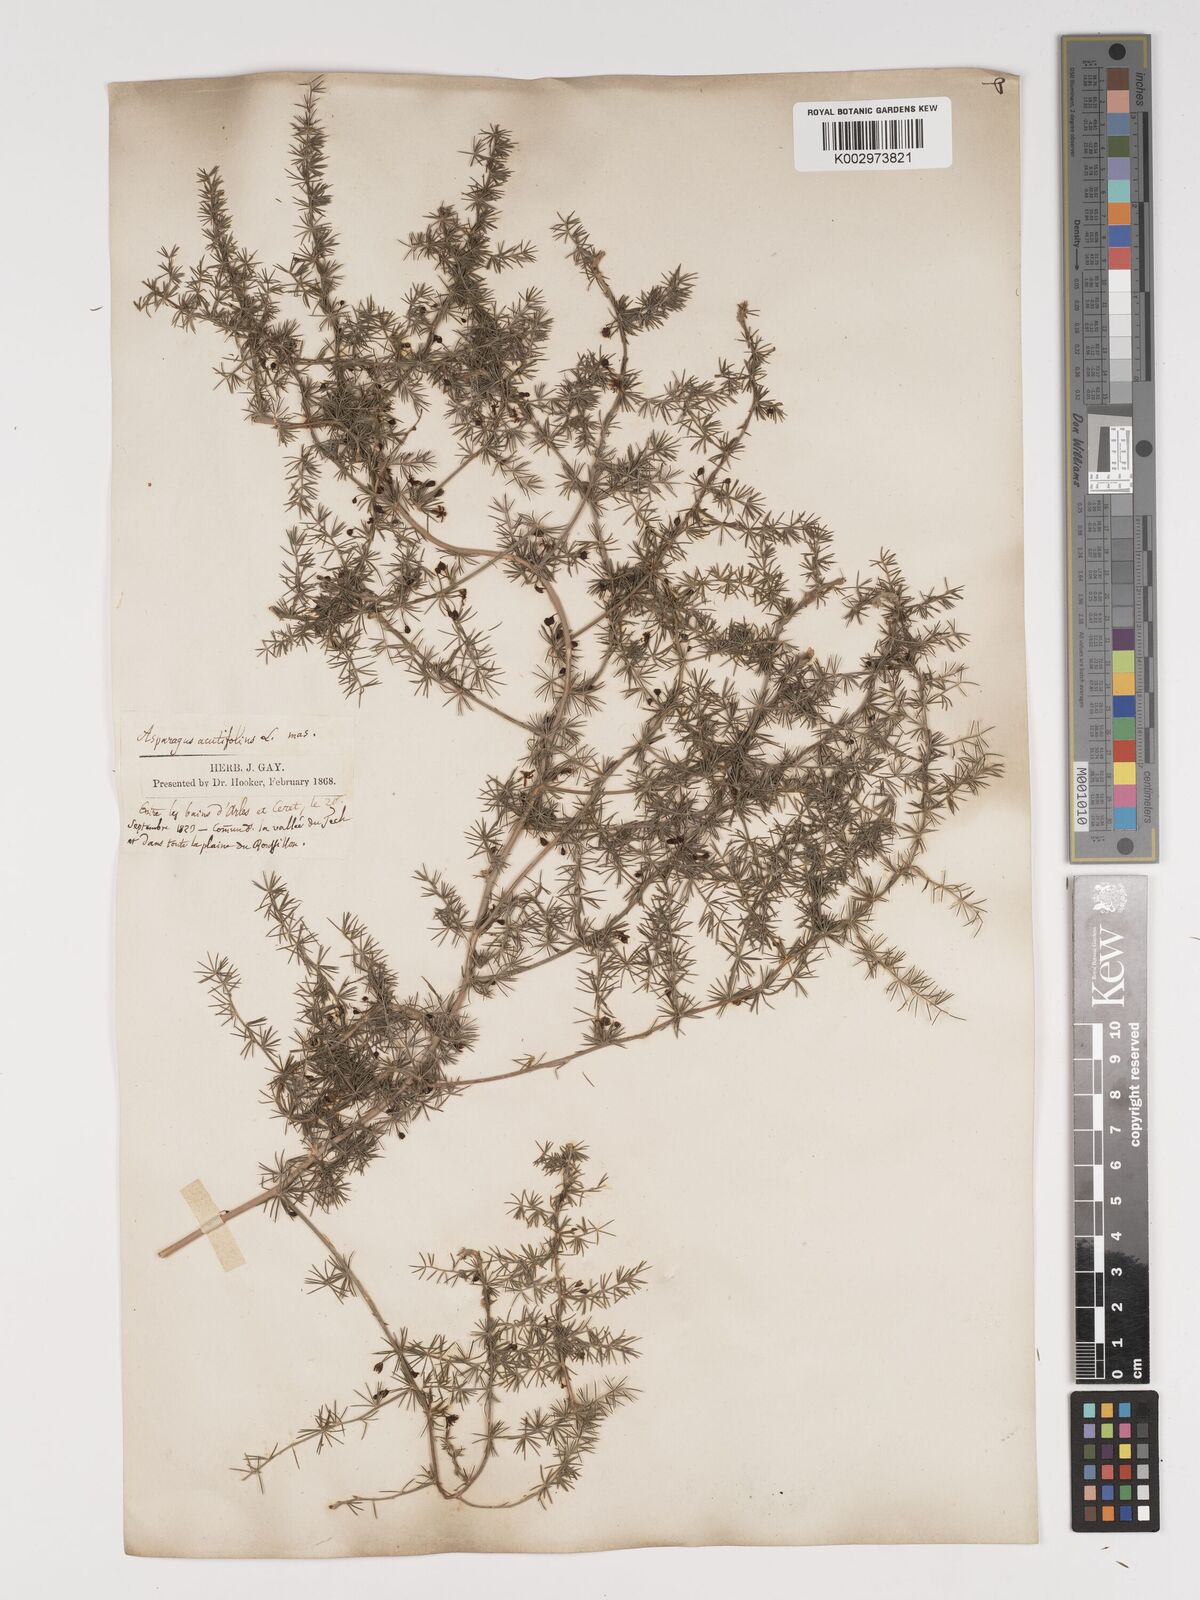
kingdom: Plantae
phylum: Tracheophyta
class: Liliopsida
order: Asparagales
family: Asparagaceae
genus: Asparagus
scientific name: Asparagus aethiopicus
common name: Sprenger's asparagus fern
